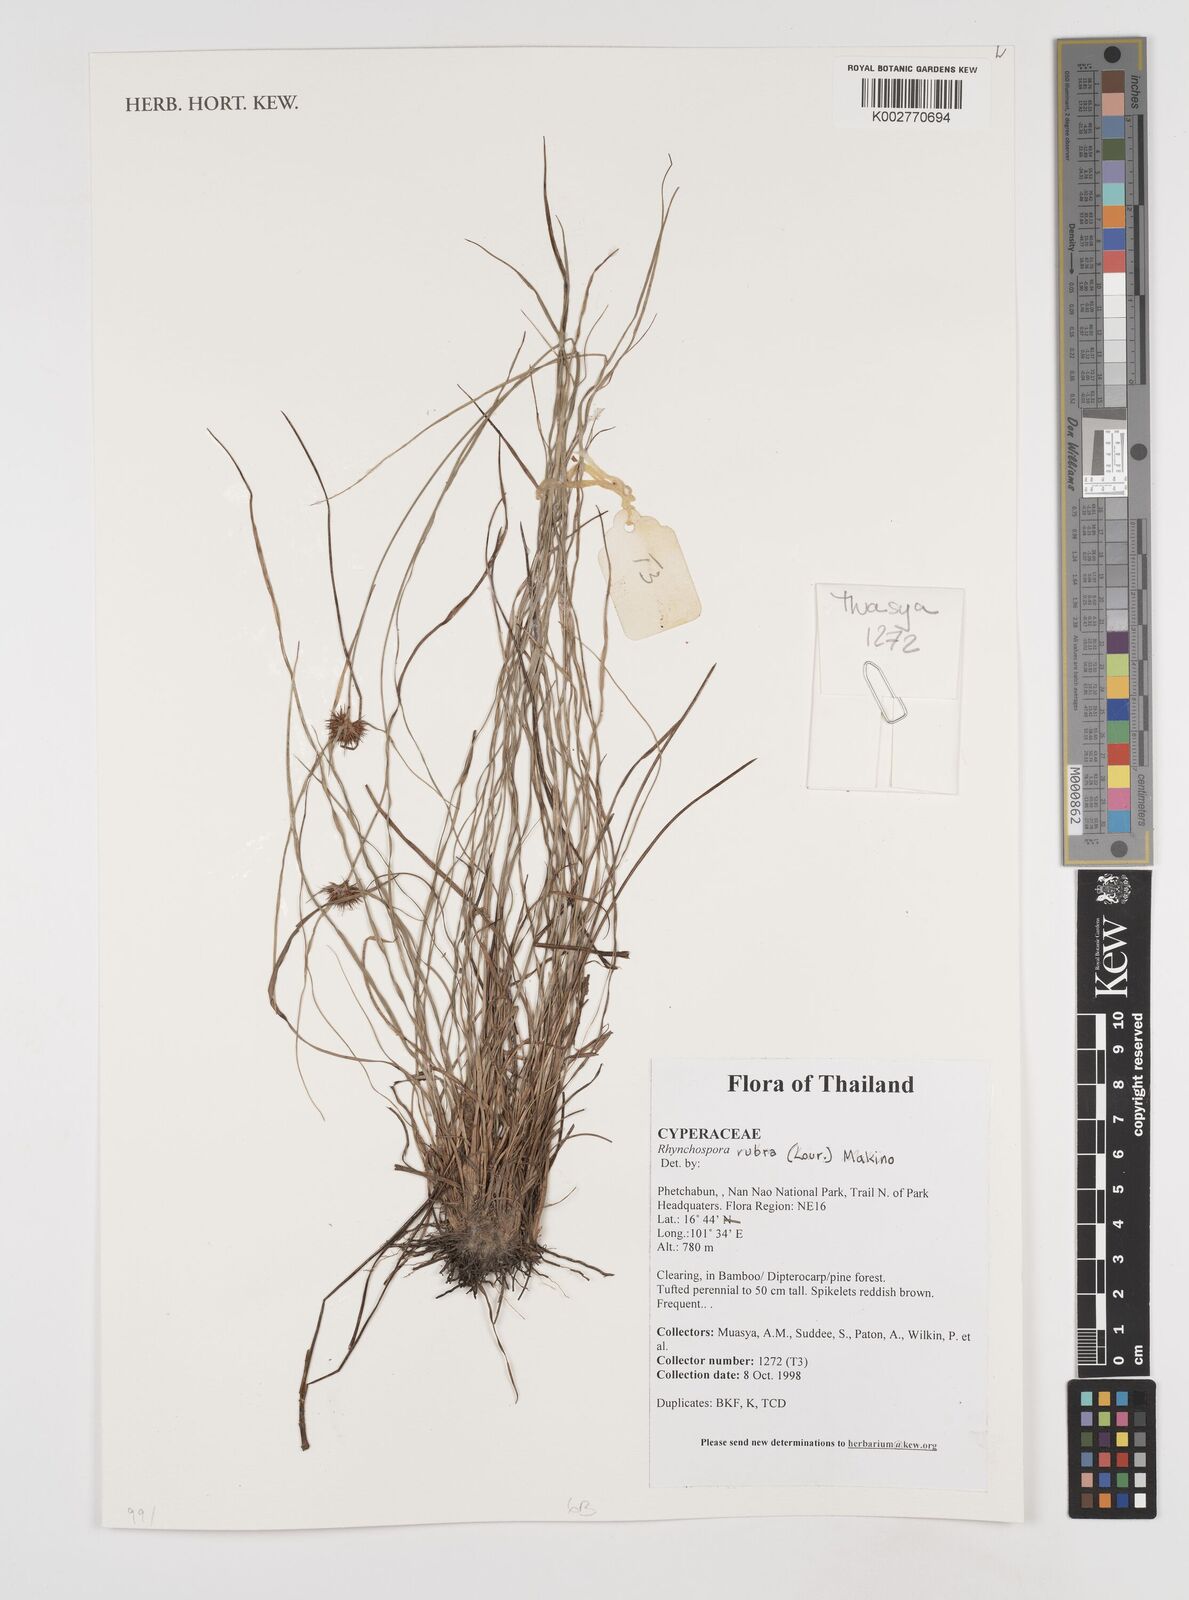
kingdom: Plantae
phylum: Tracheophyta
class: Liliopsida
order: Poales
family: Cyperaceae
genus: Rhynchospora
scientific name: Rhynchospora rubra
